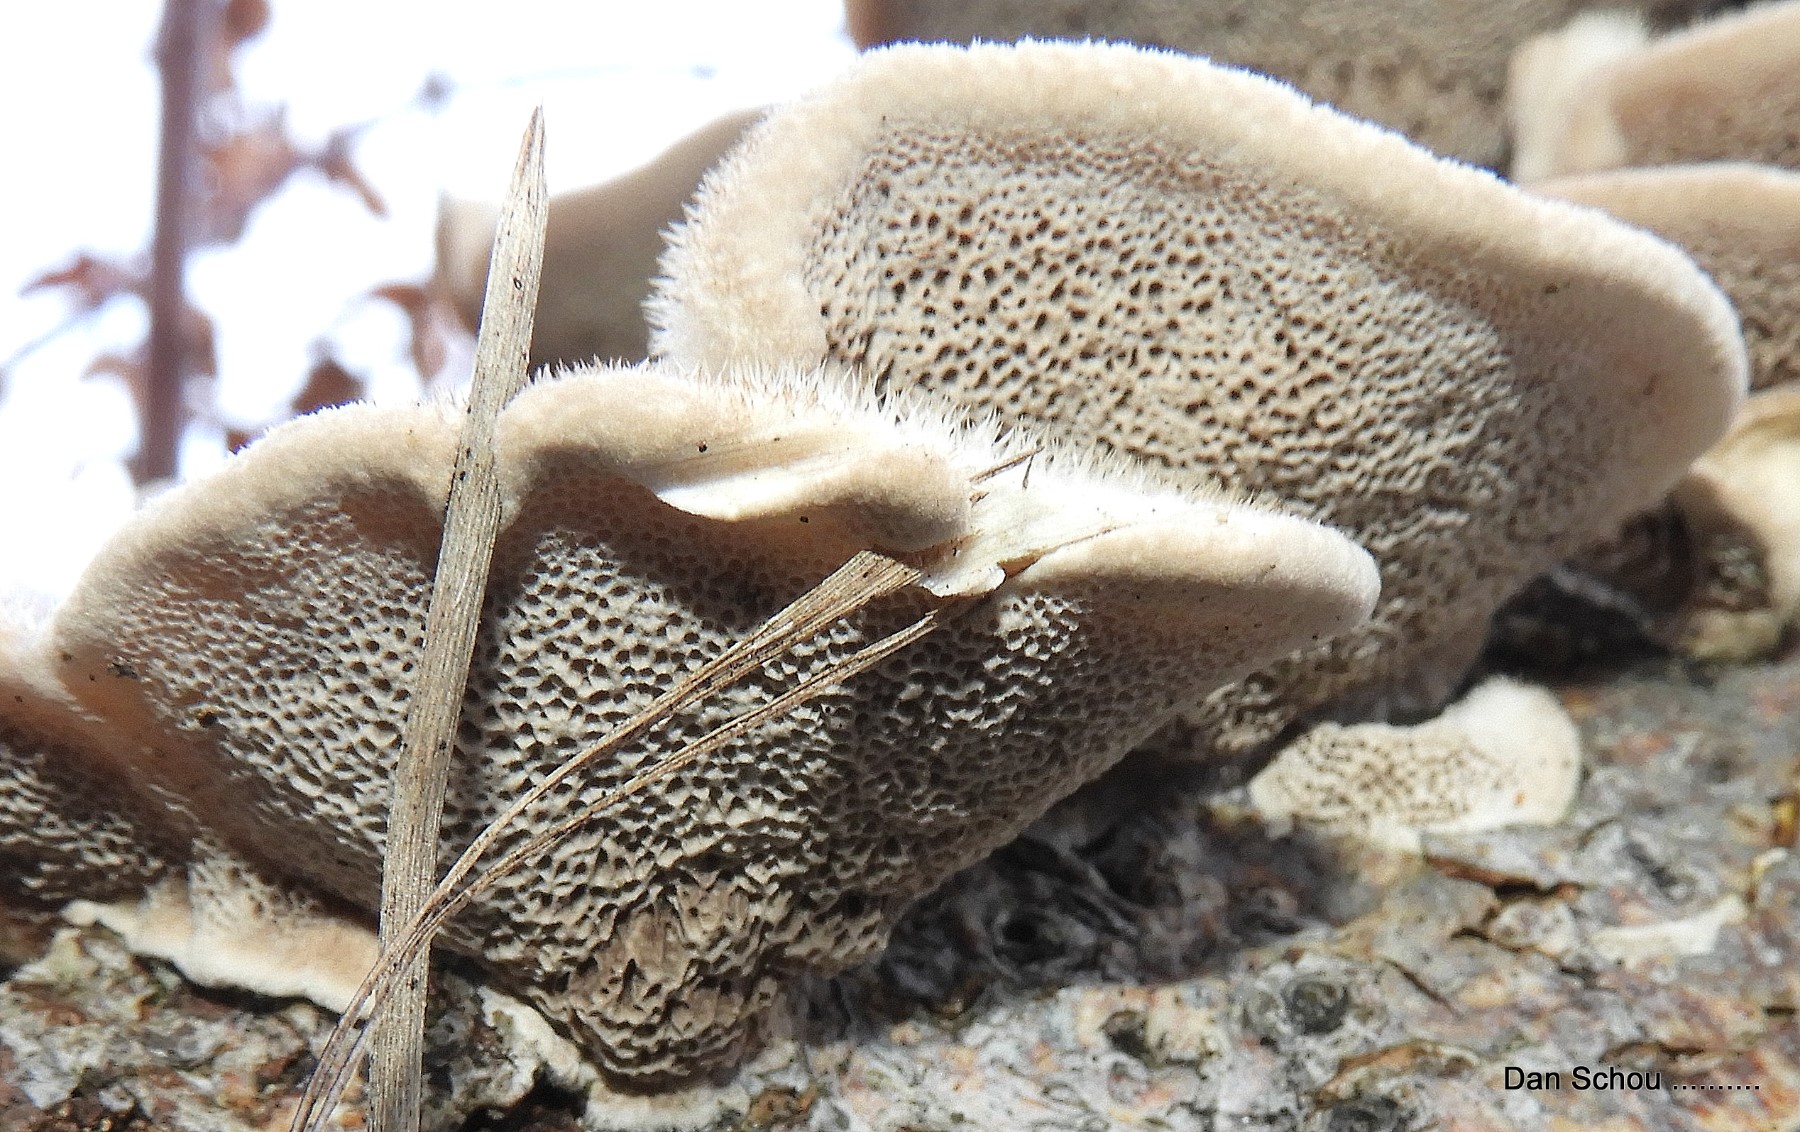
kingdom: Fungi
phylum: Basidiomycota
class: Agaricomycetes
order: Russulales
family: Stereaceae
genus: Stereum
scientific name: Stereum hirsutum
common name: håret lædersvamp
